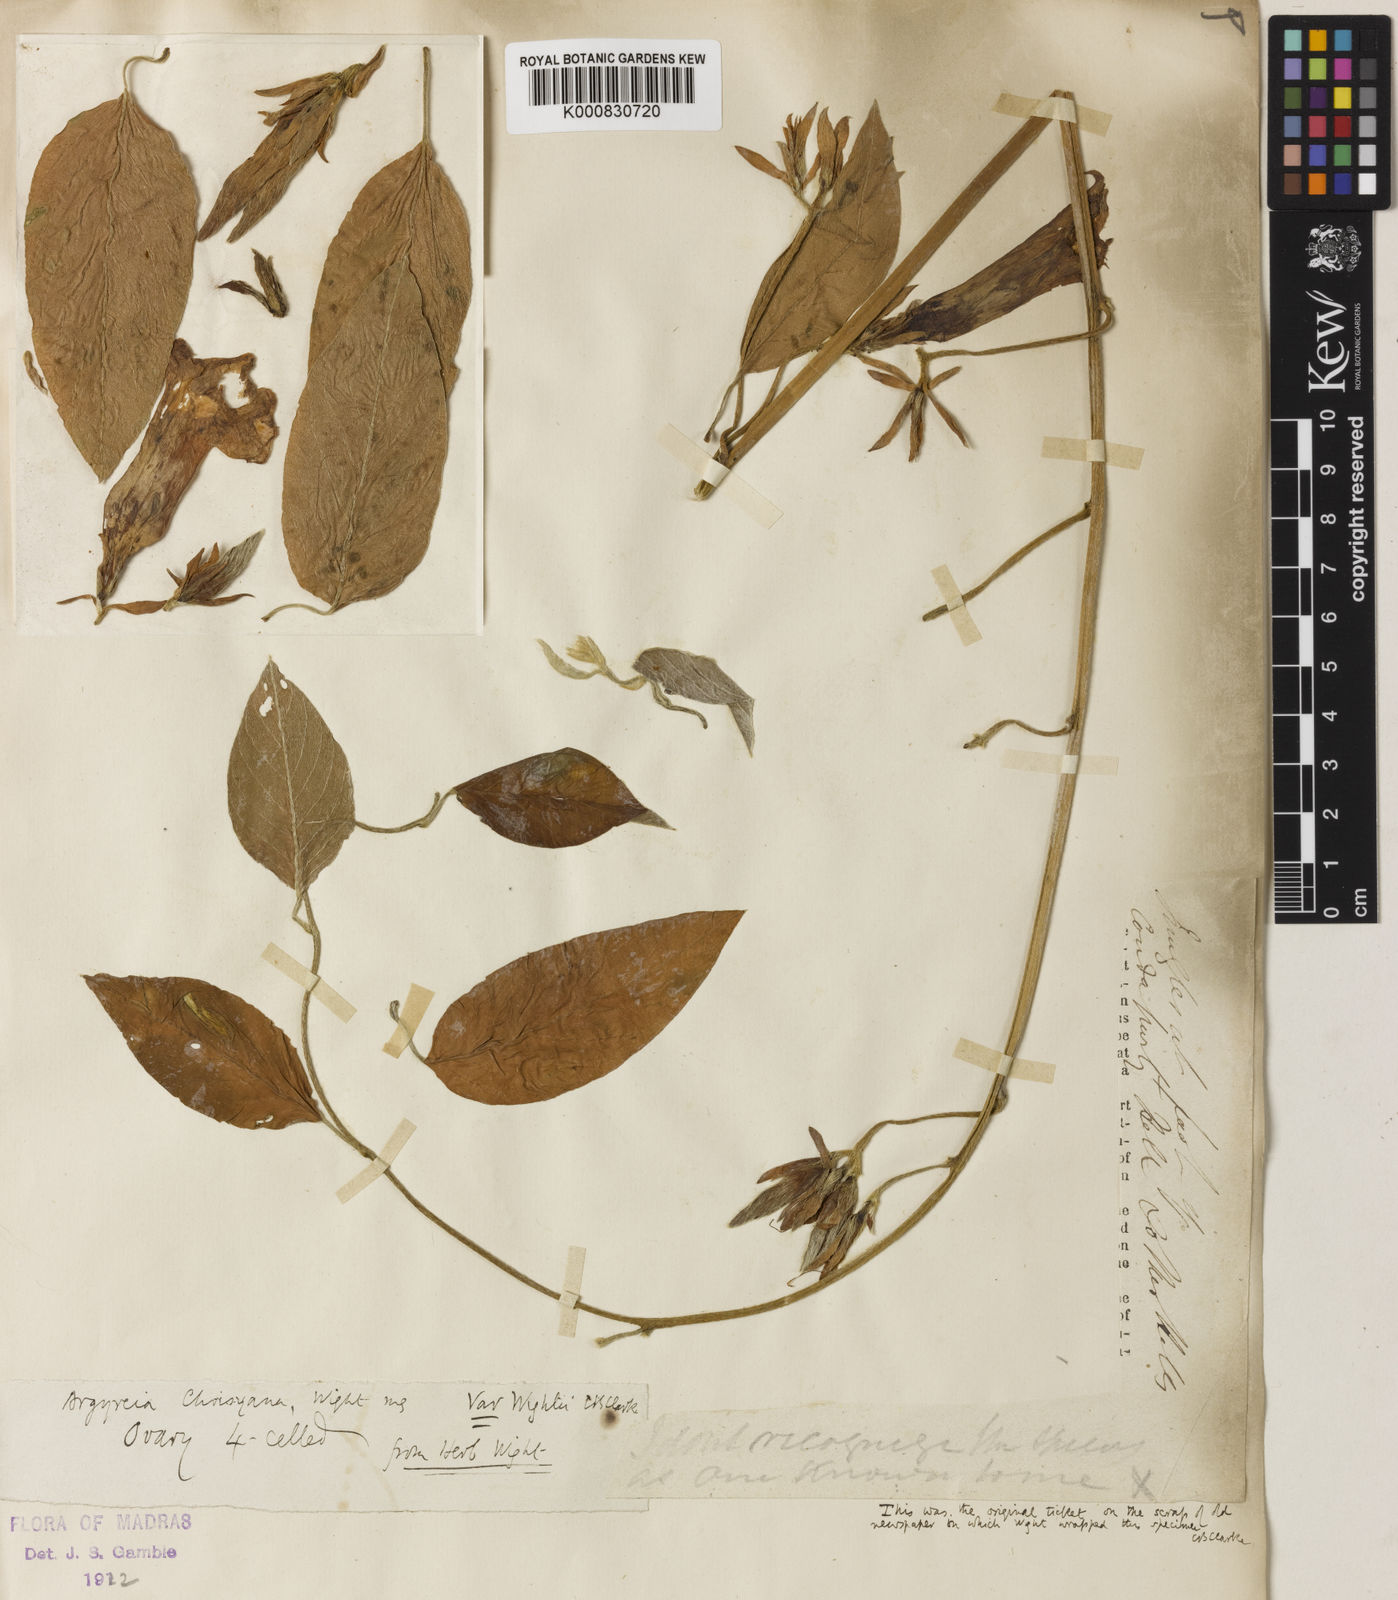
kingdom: Plantae
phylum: Tracheophyta
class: Magnoliopsida
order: Solanales
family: Convolvulaceae
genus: Argyreia
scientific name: Argyreia
